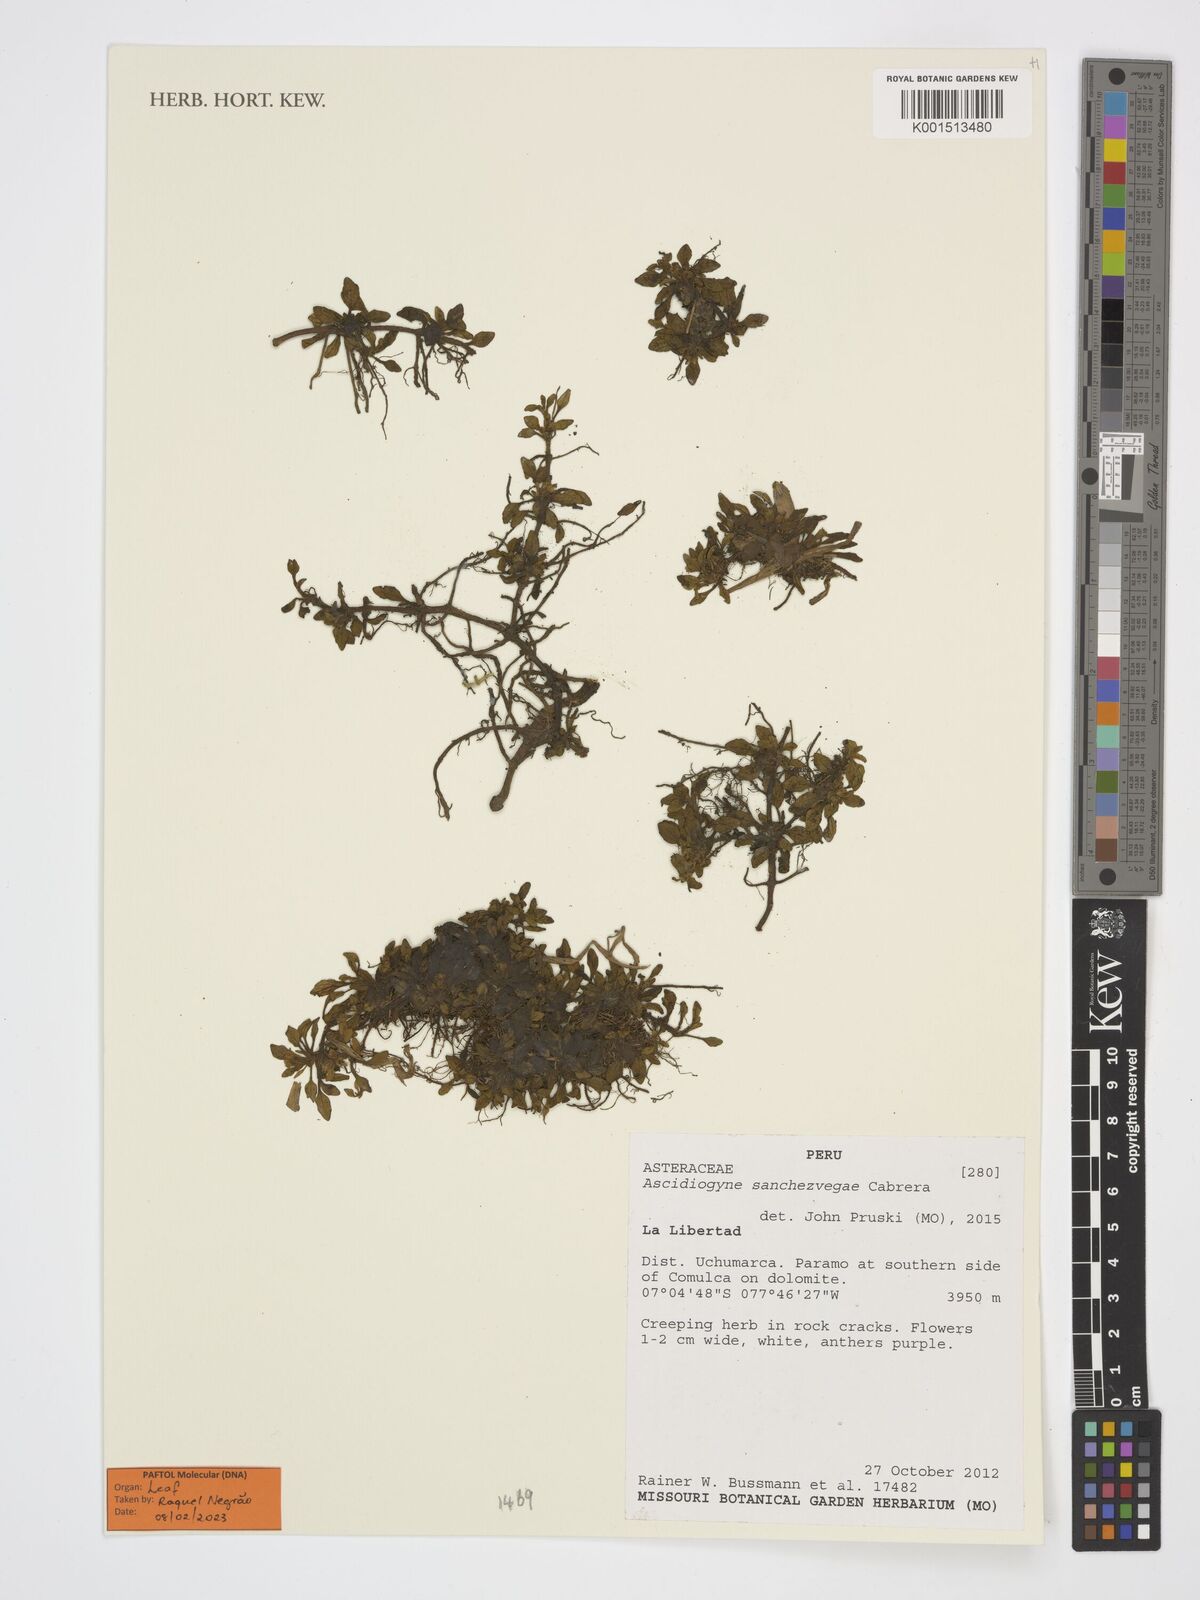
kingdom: Plantae
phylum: Tracheophyta
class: Magnoliopsida
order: Asterales
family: Asteraceae
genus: Ascidiogyne
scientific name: Ascidiogyne sanchezvegae
